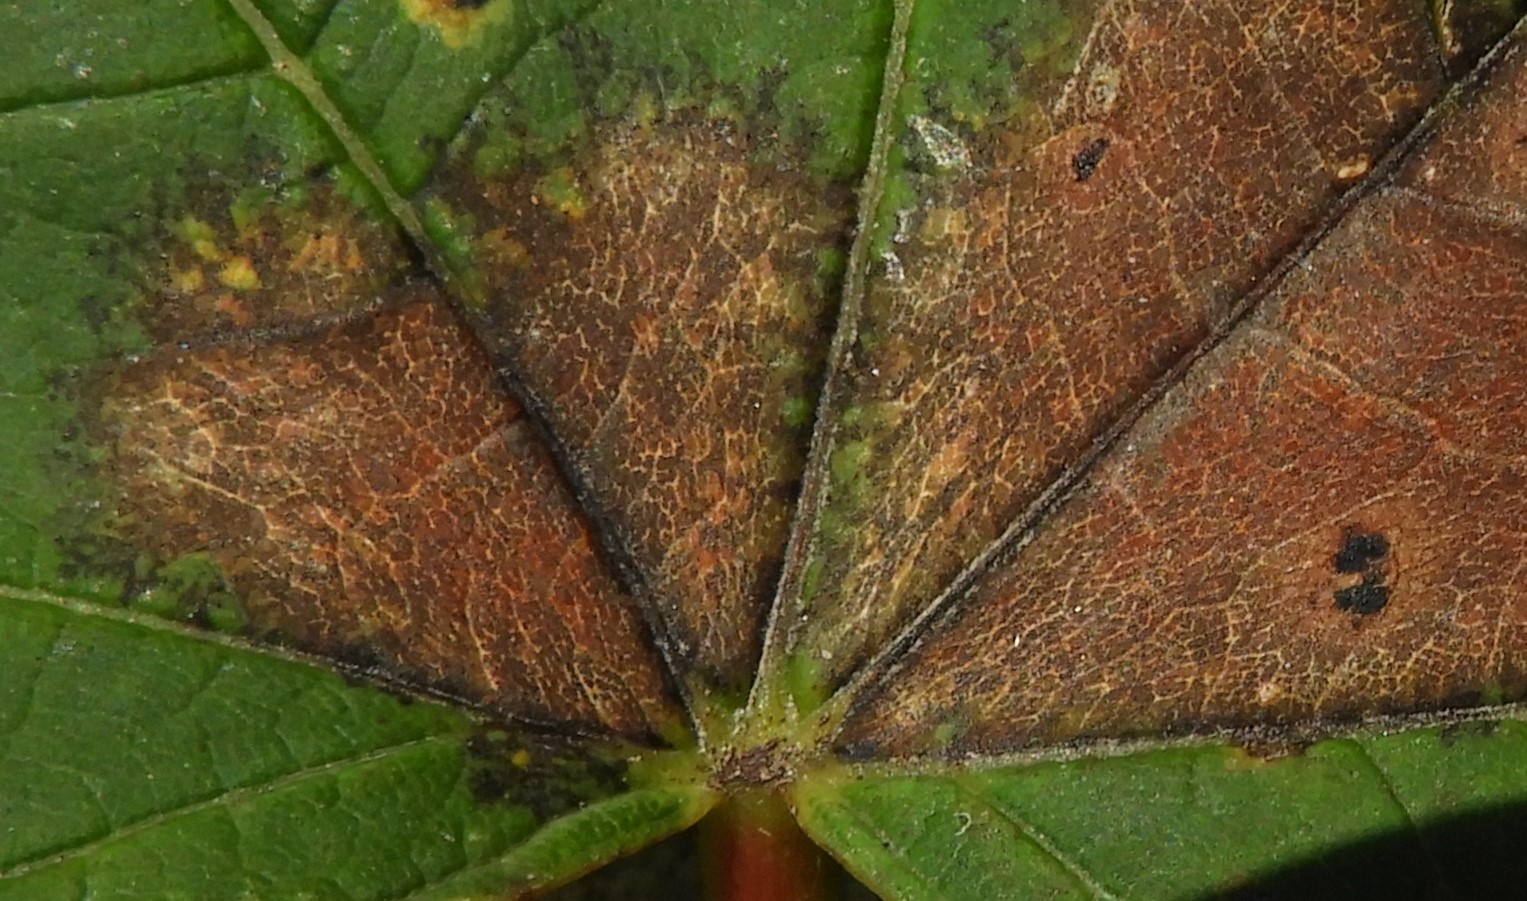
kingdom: Fungi
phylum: Ascomycota
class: Sordariomycetes
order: Diaporthales
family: Gnomoniaceae
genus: Pleuroceras
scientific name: Pleuroceras pseudoplatani
